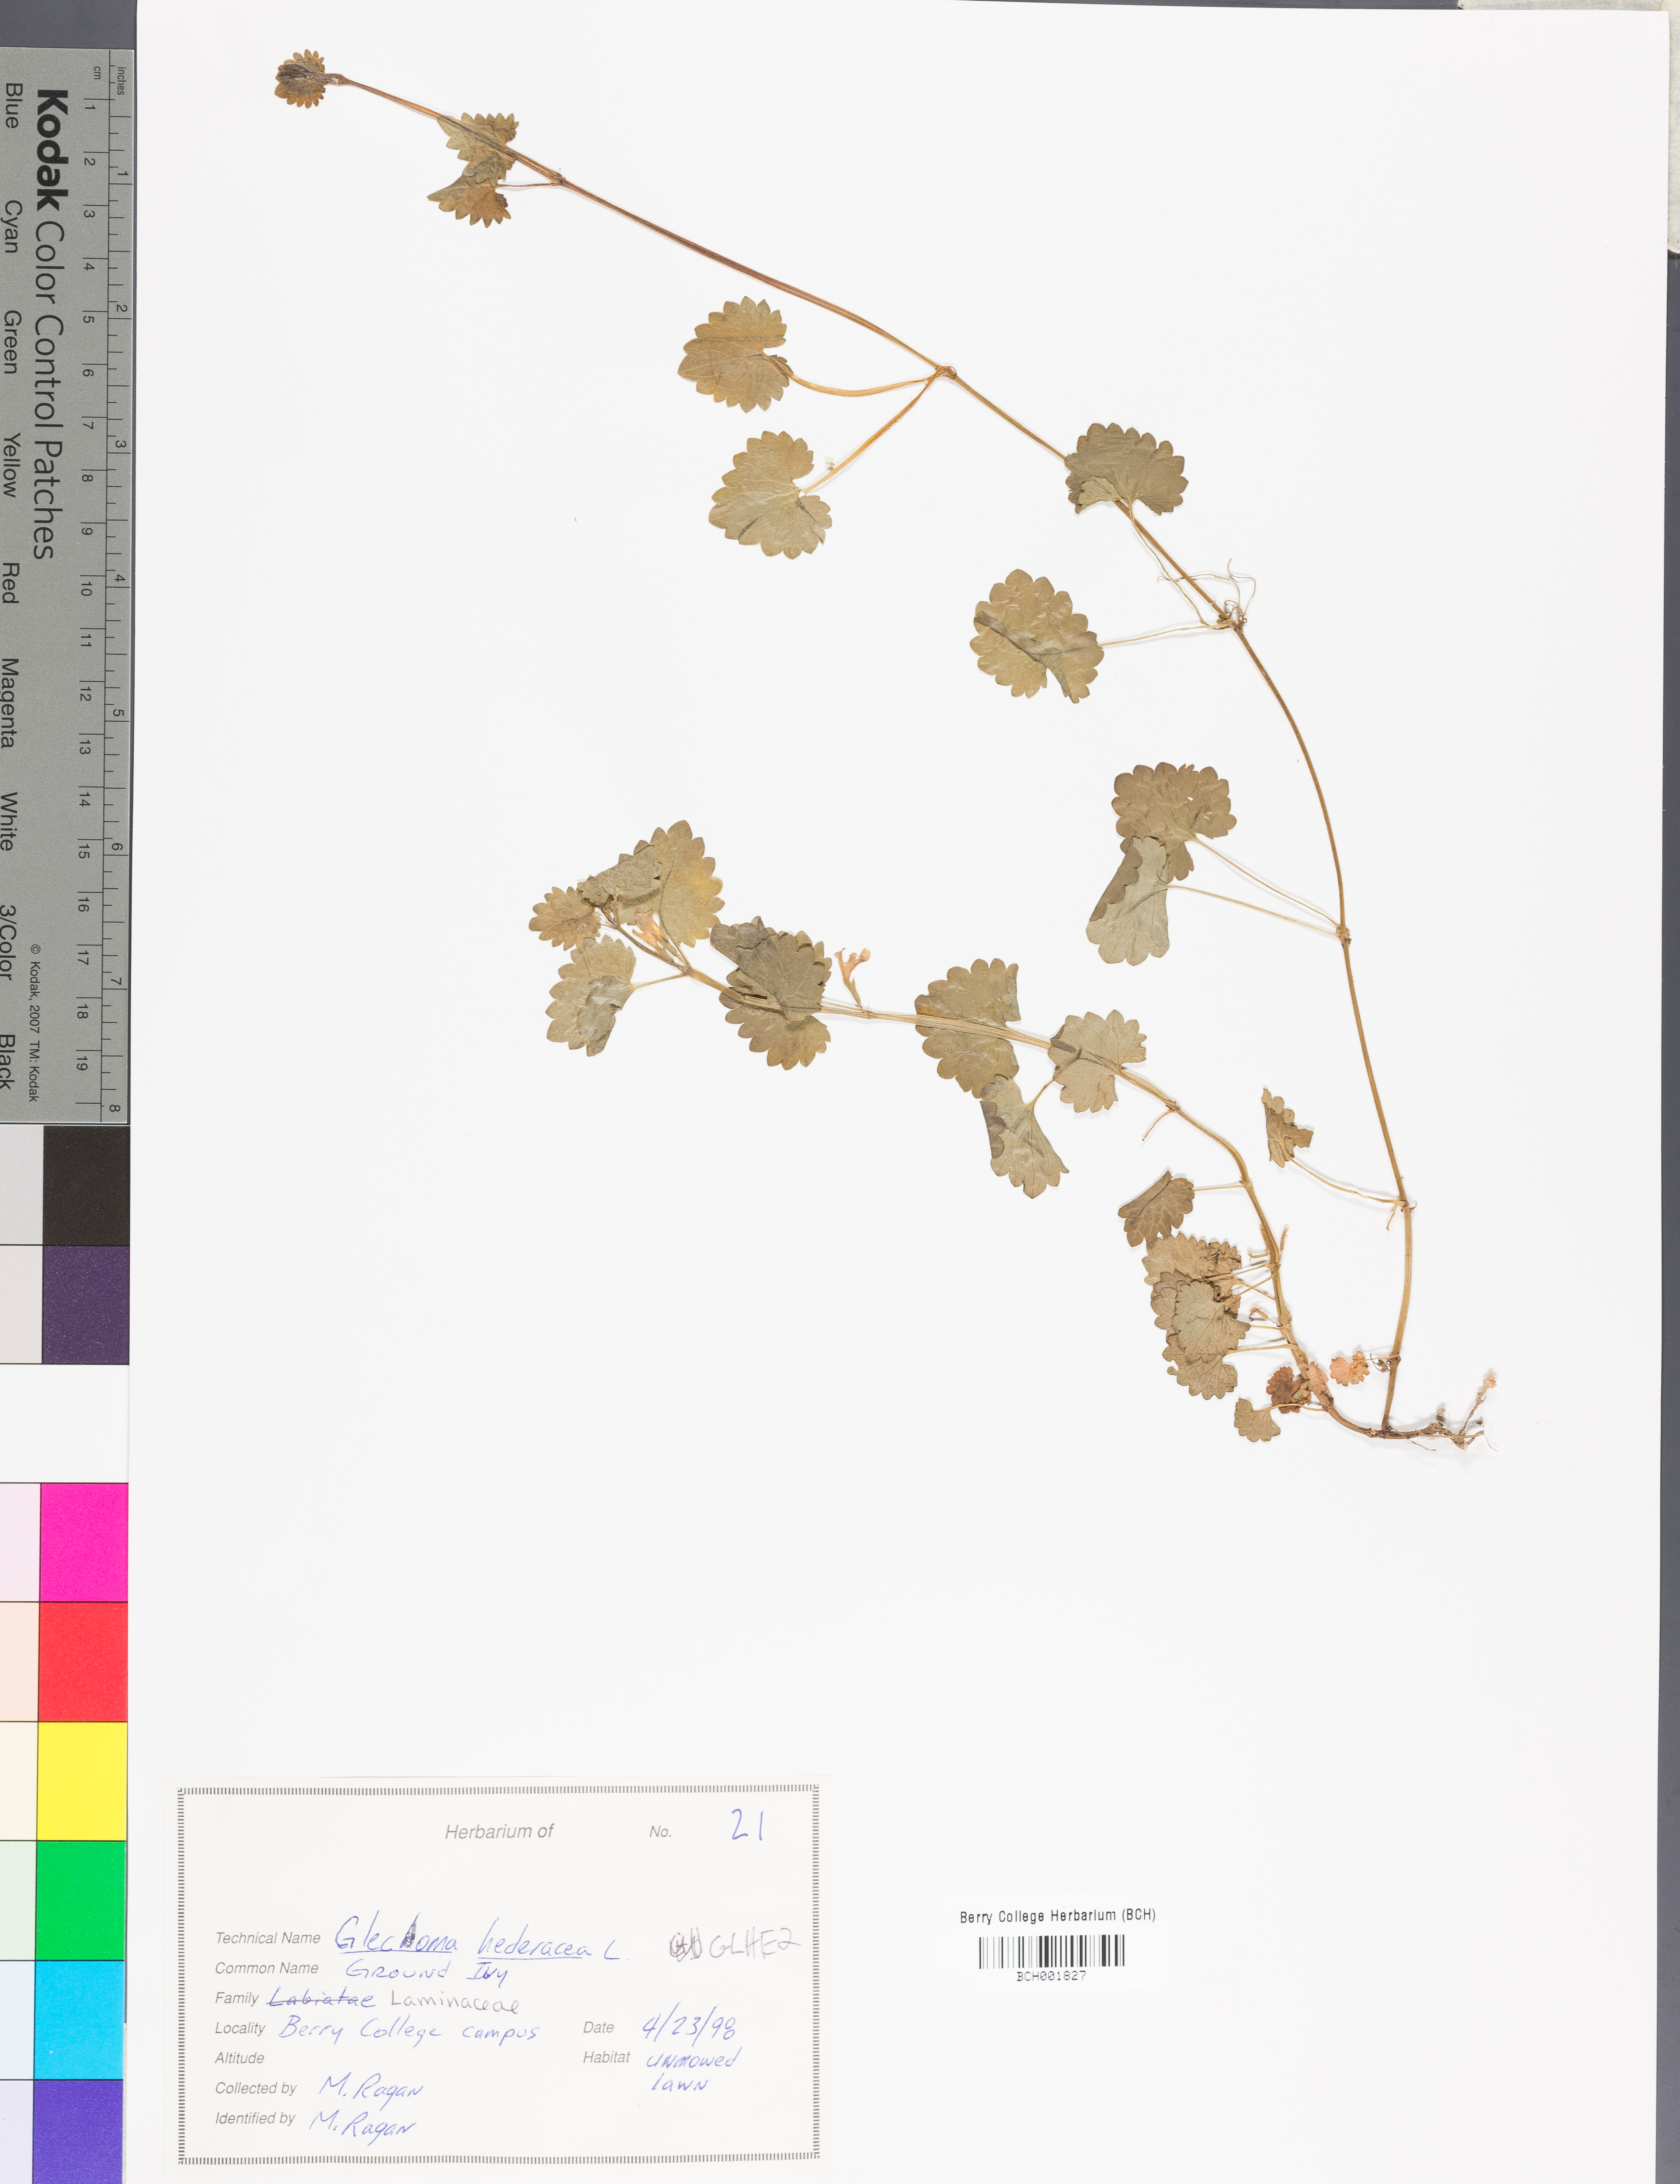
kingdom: Plantae
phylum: Tracheophyta
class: Magnoliopsida
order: Lamiales
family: Lamiaceae
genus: Glechoma
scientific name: Glechoma hederacea
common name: Ground ivy
